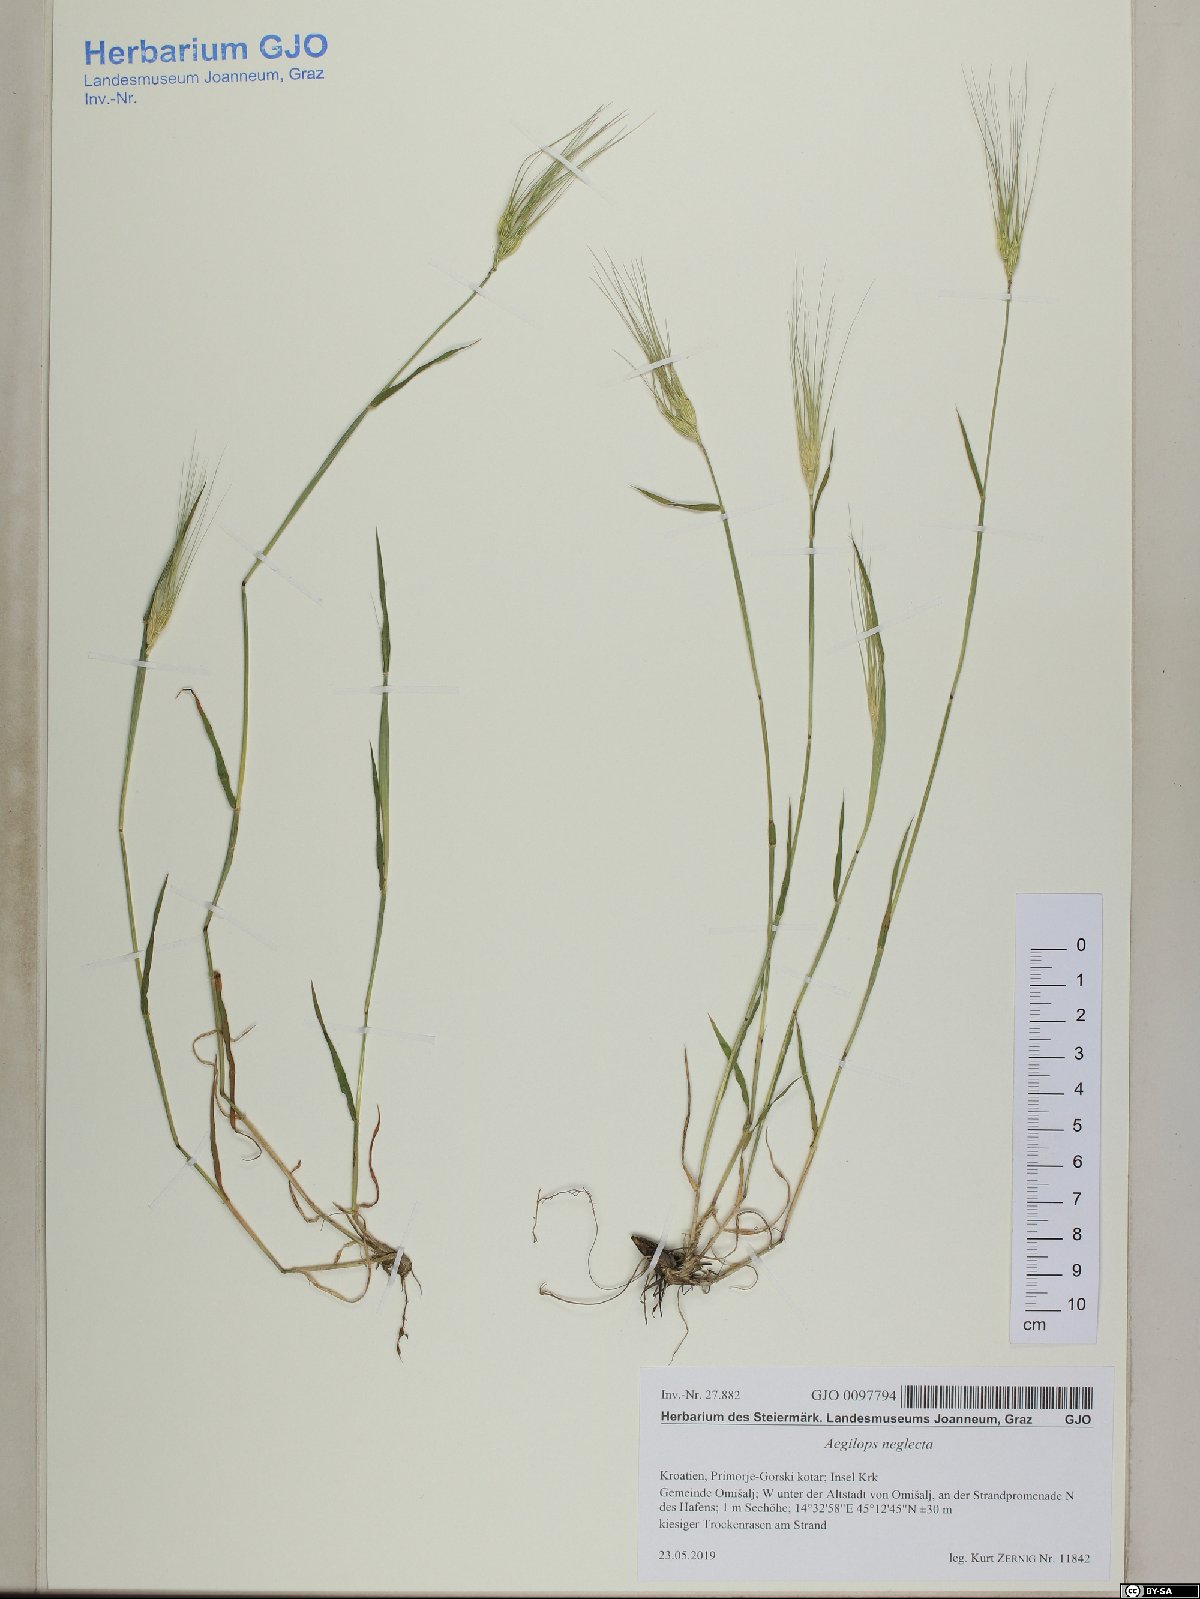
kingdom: Plantae
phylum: Tracheophyta
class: Liliopsida
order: Poales
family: Poaceae
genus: Aegilops
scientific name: Aegilops neglecta
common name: Three-awn goat grass
